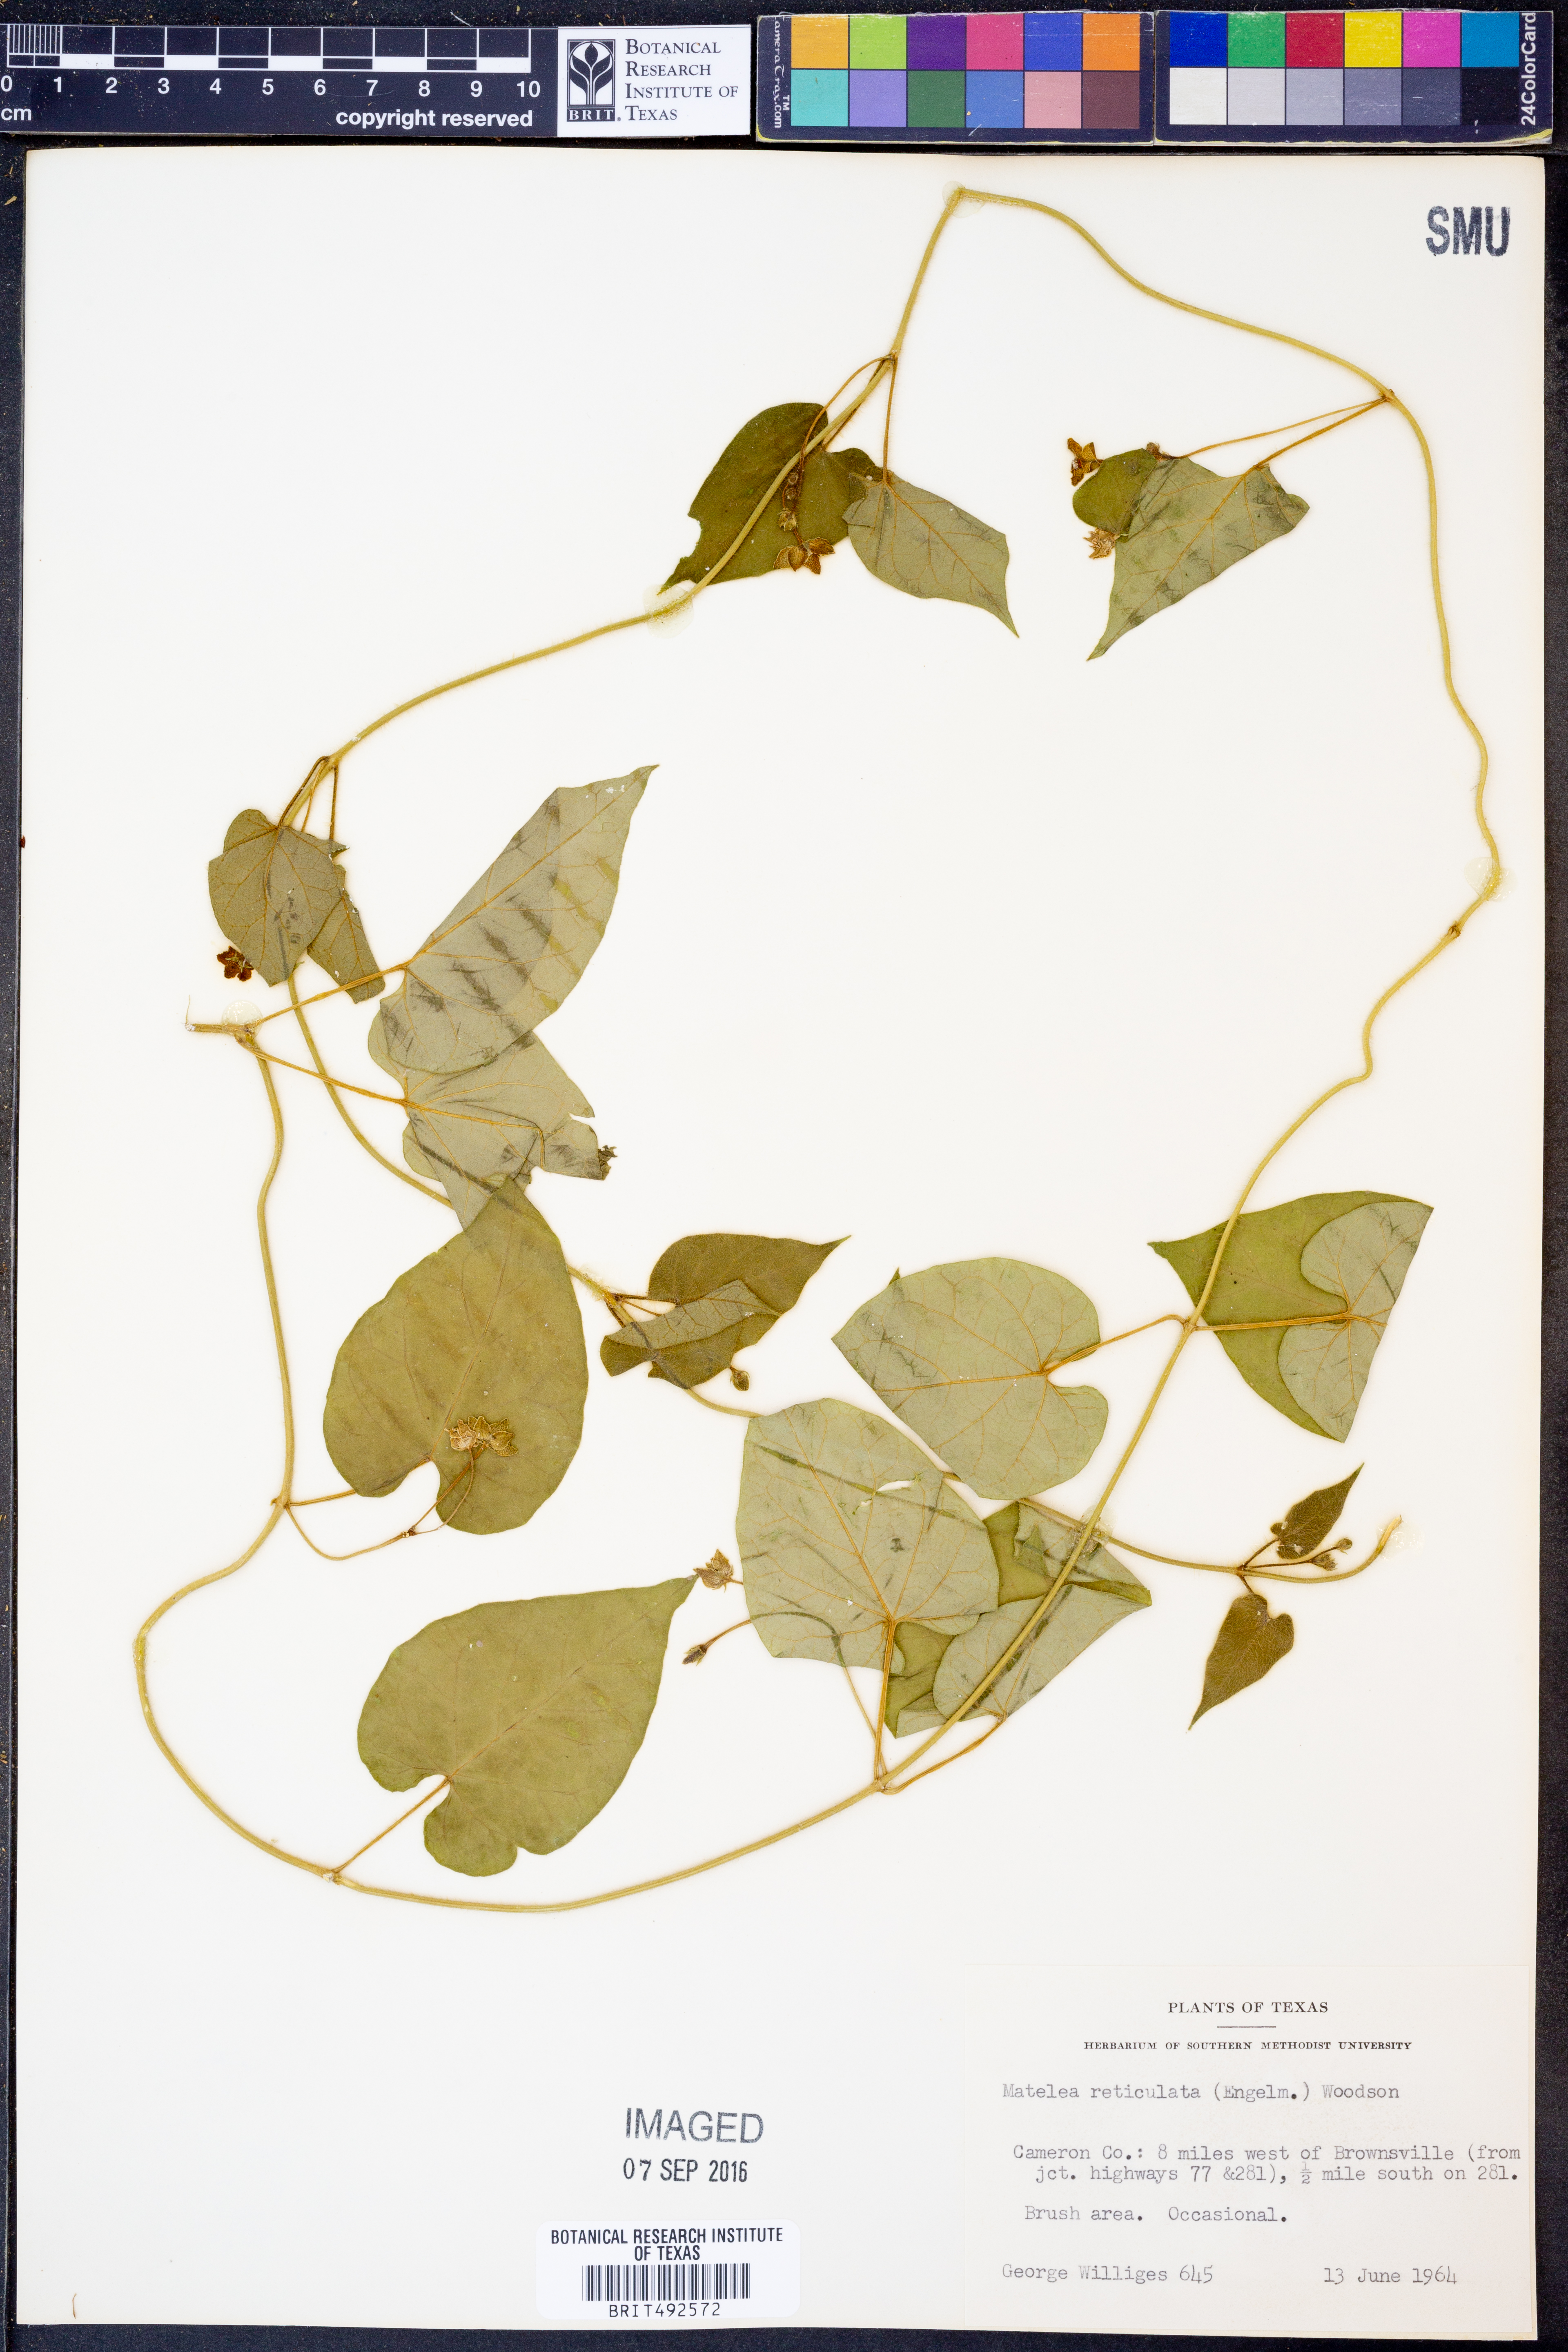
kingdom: Plantae
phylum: Tracheophyta
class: Magnoliopsida
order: Gentianales
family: Apocynaceae
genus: Dictyanthus
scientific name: Dictyanthus reticulatus
